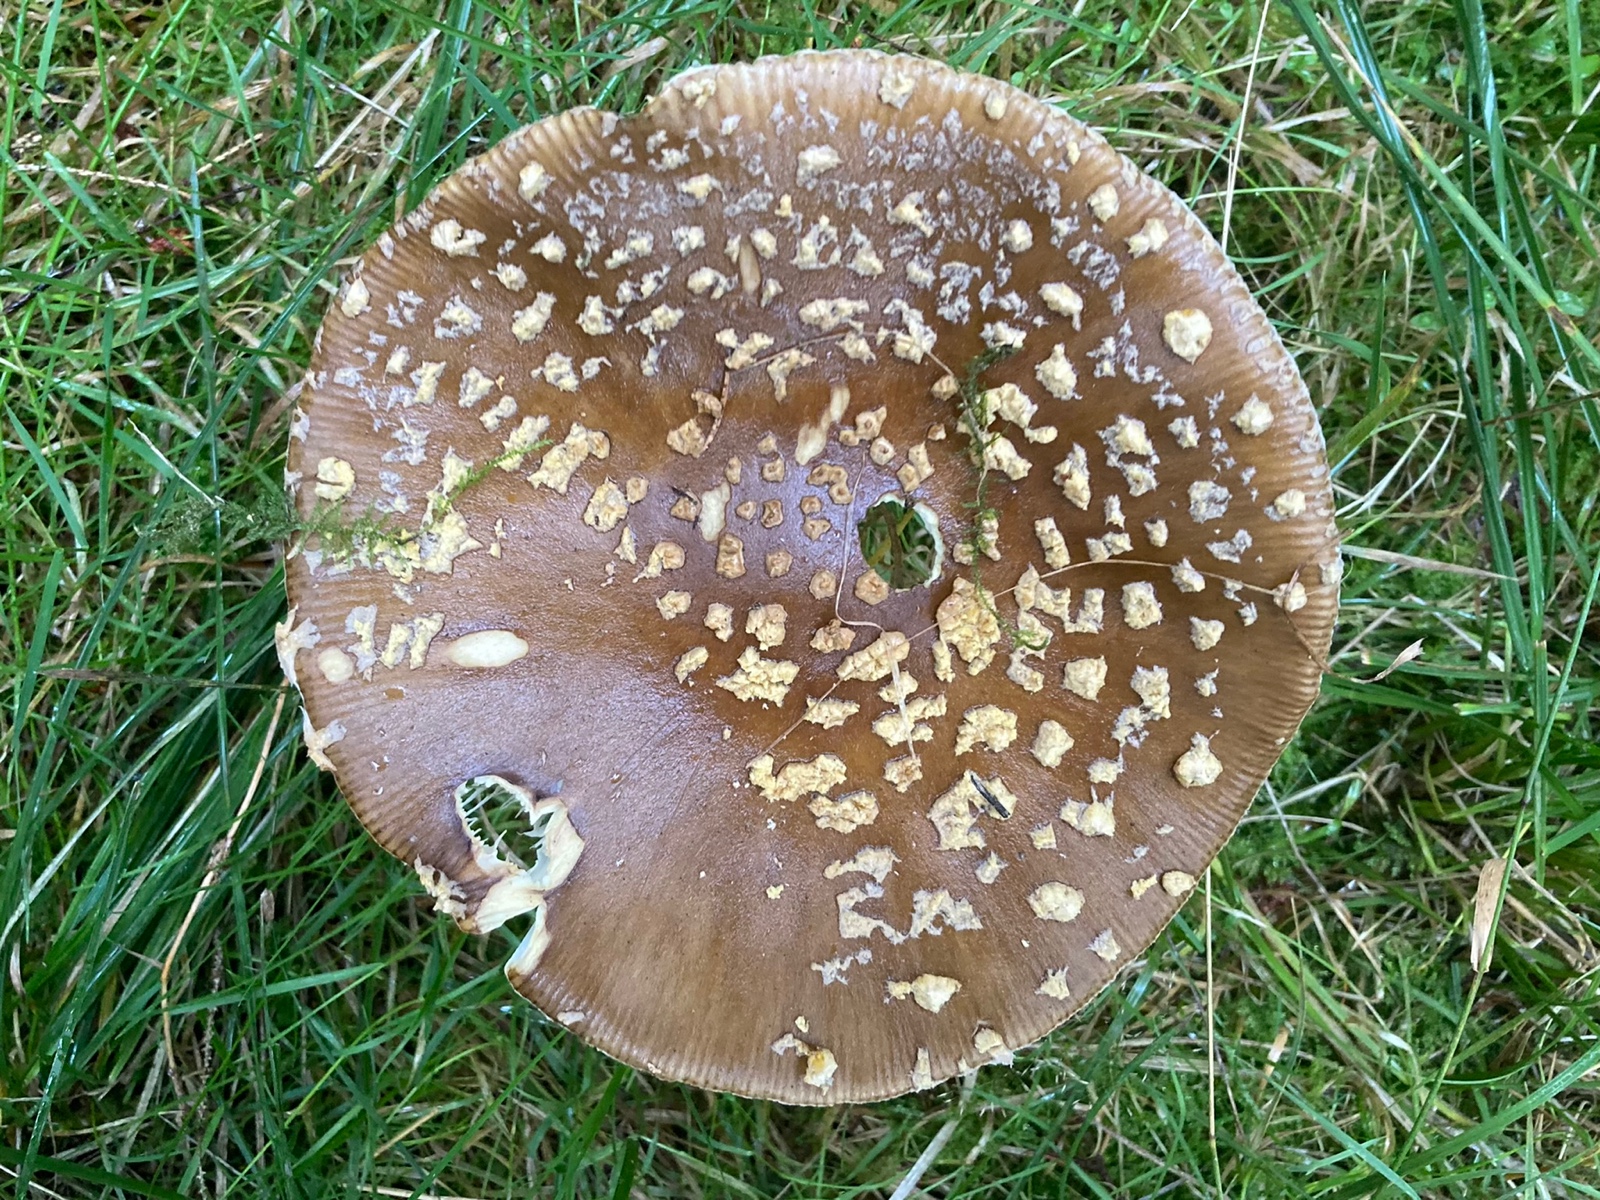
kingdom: Fungi
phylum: Basidiomycota
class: Agaricomycetes
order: Agaricales
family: Amanitaceae
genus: Amanita
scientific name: Amanita regalis
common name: brun fluesvamp
